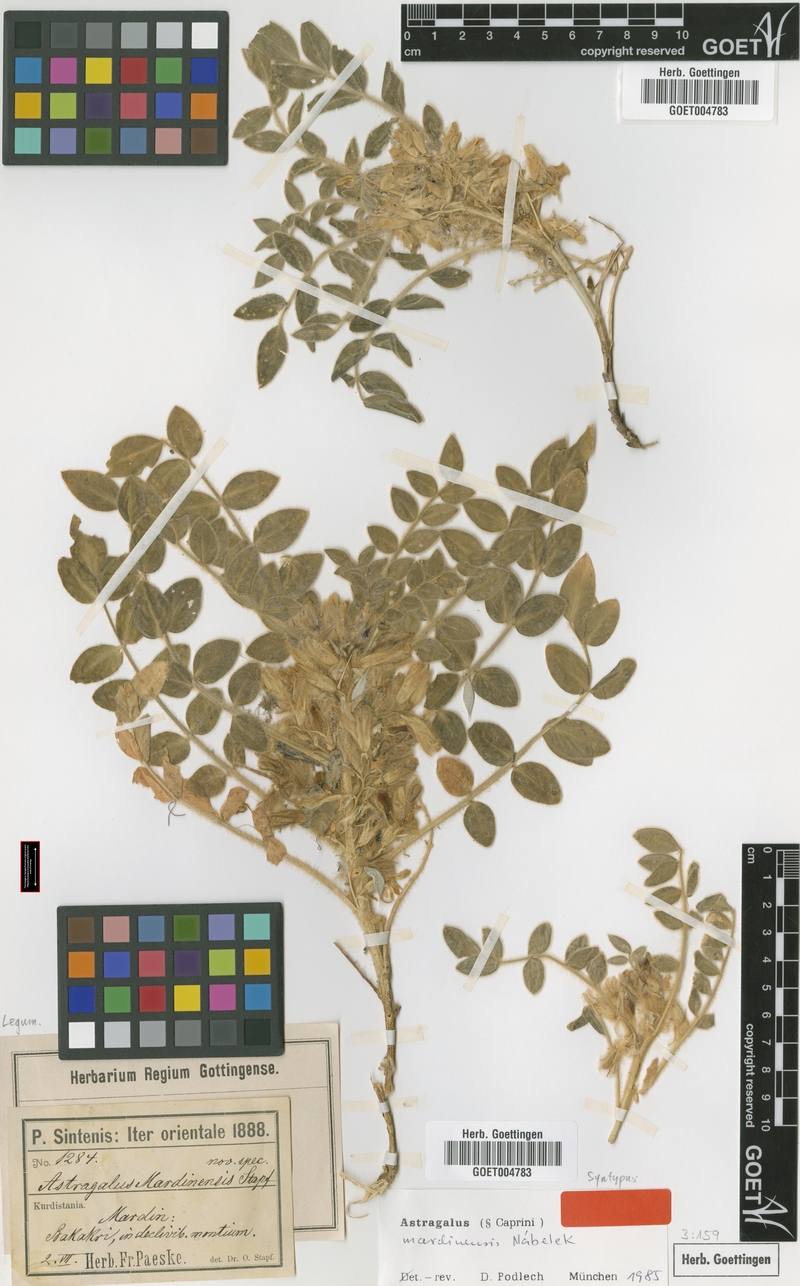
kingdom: Plantae
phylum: Tracheophyta
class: Magnoliopsida
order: Fabales
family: Fabaceae
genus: Astragalus
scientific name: Astragalus mardinensis
